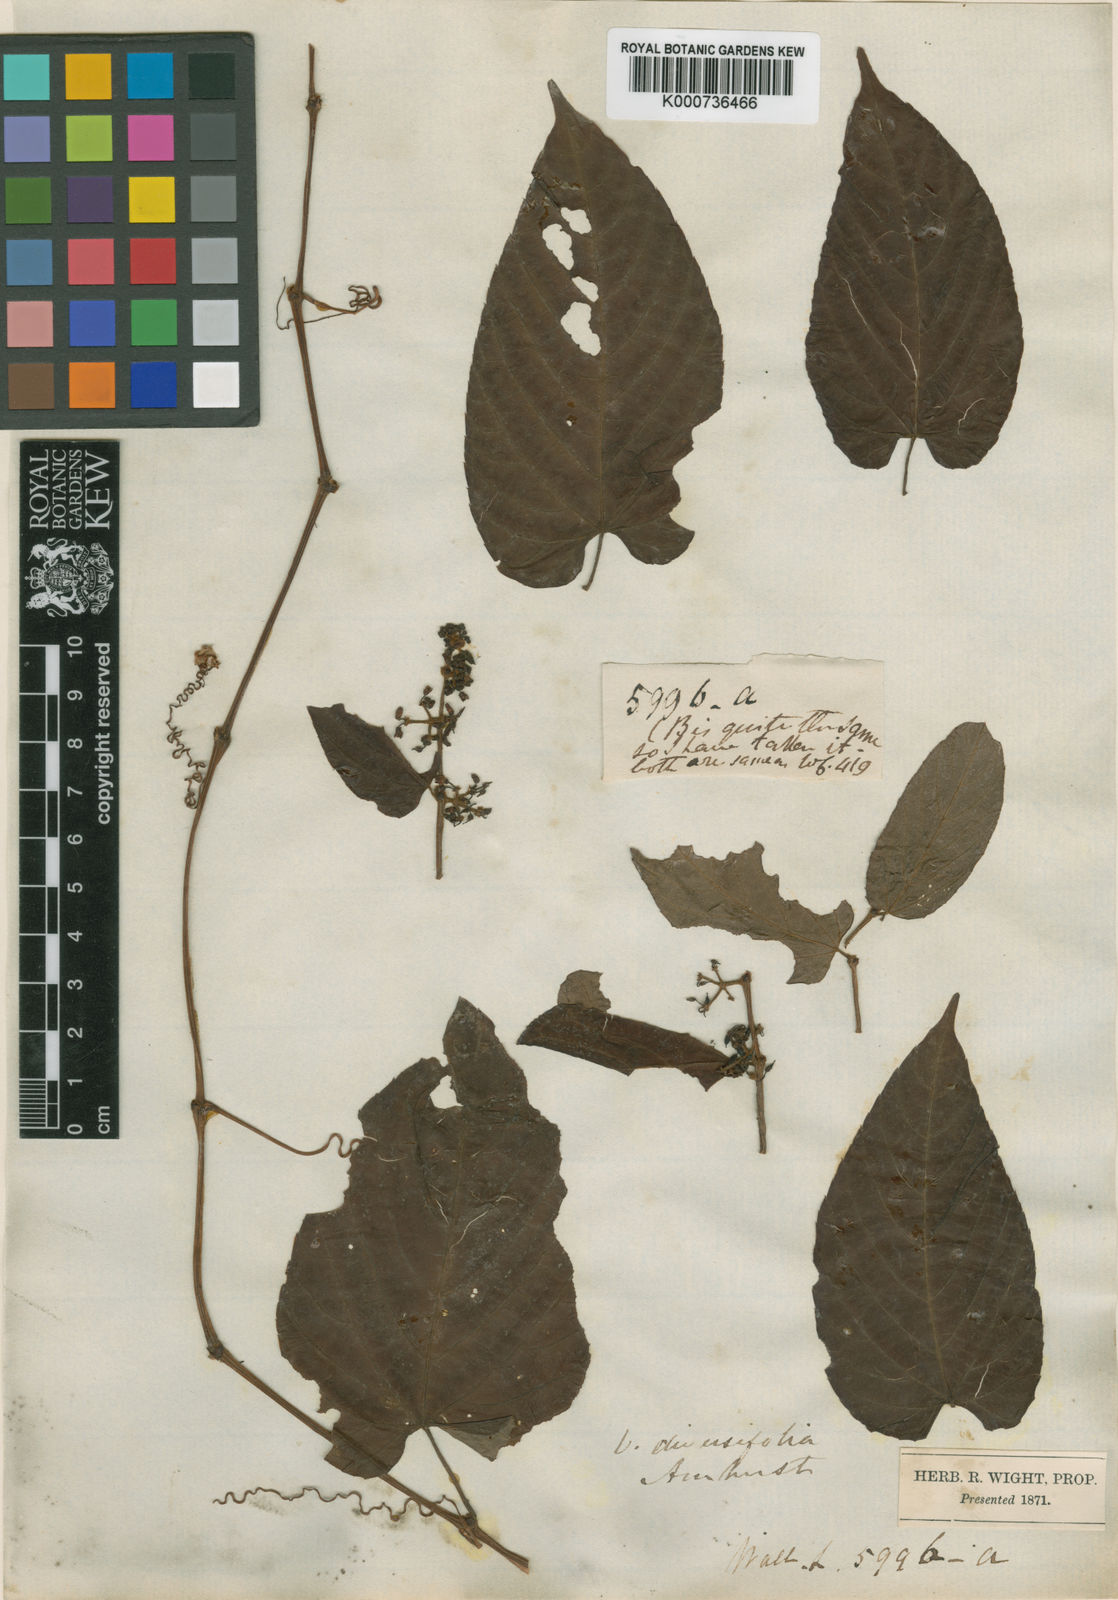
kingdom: Plantae
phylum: Tracheophyta
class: Magnoliopsida
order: Vitales
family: Vitaceae
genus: Cissus
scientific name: Cissus discolor
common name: Climbing-begonia
